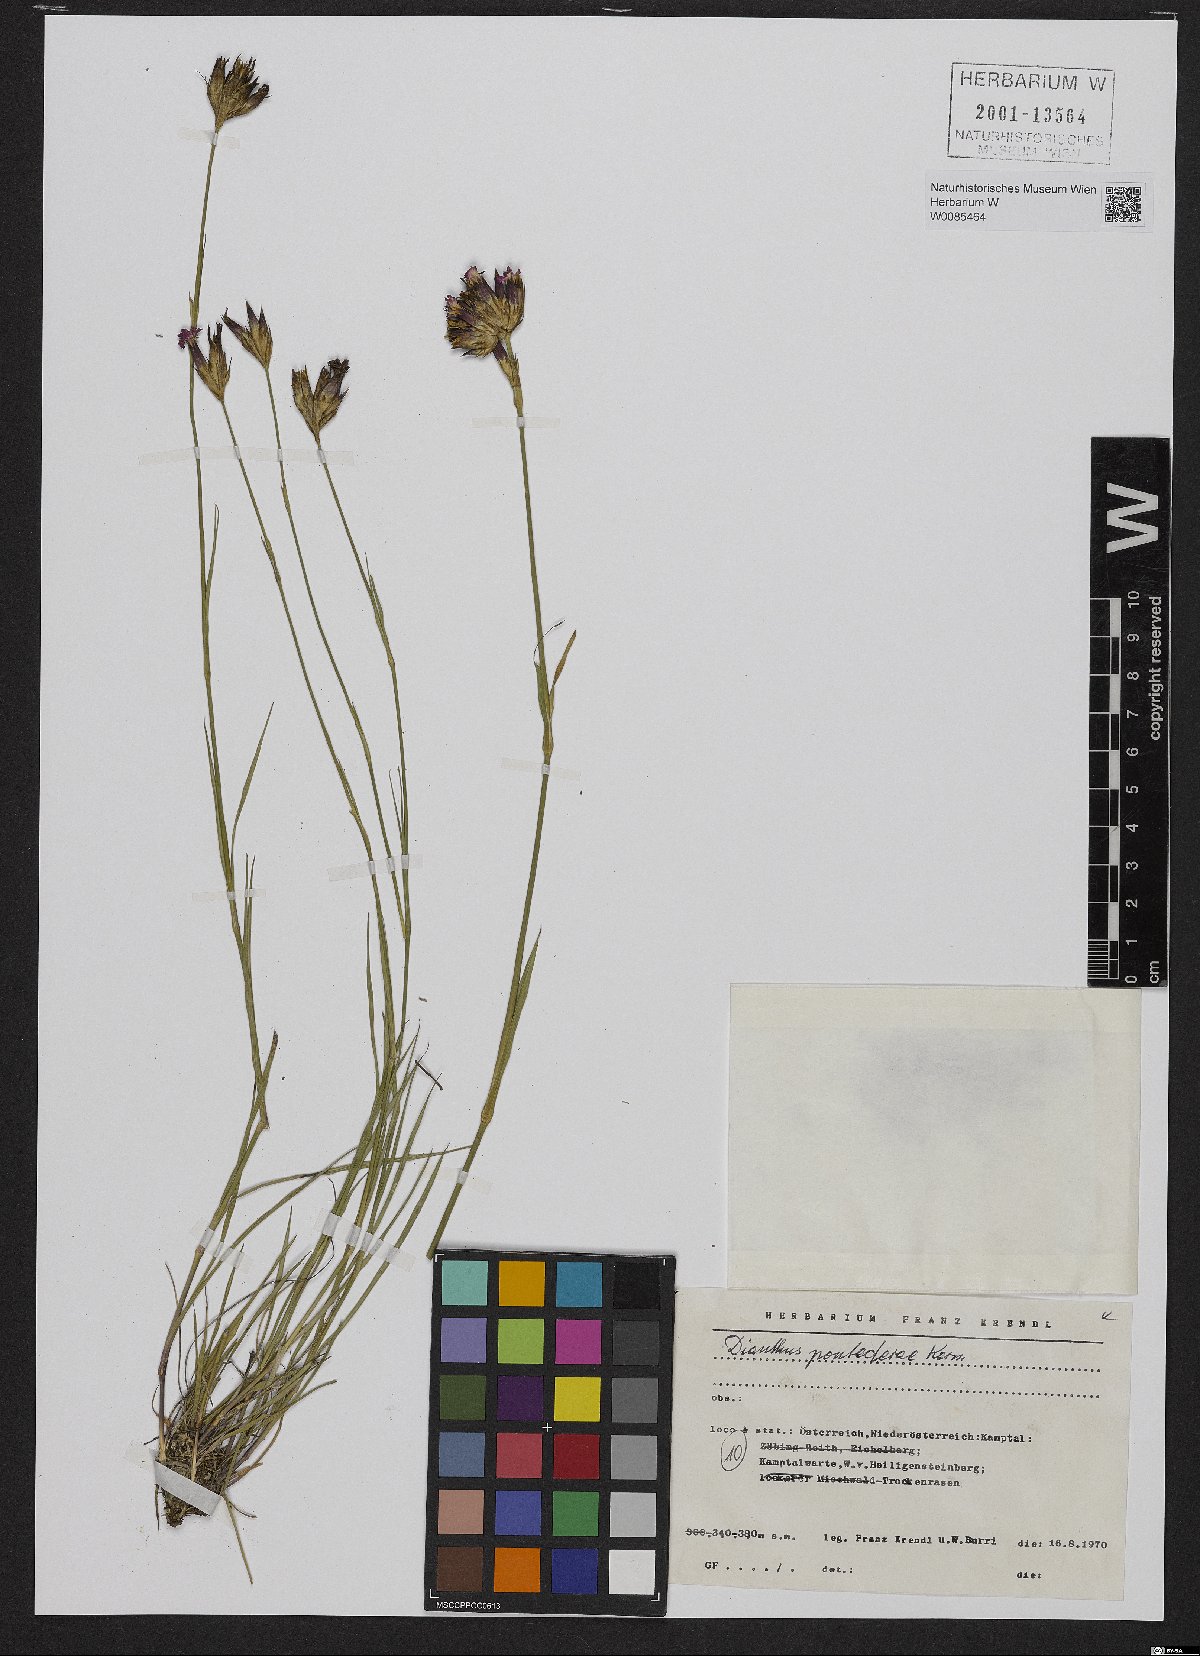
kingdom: Plantae
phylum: Tracheophyta
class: Magnoliopsida
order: Caryophyllales
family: Caryophyllaceae
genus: Dianthus
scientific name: Dianthus pontederae
